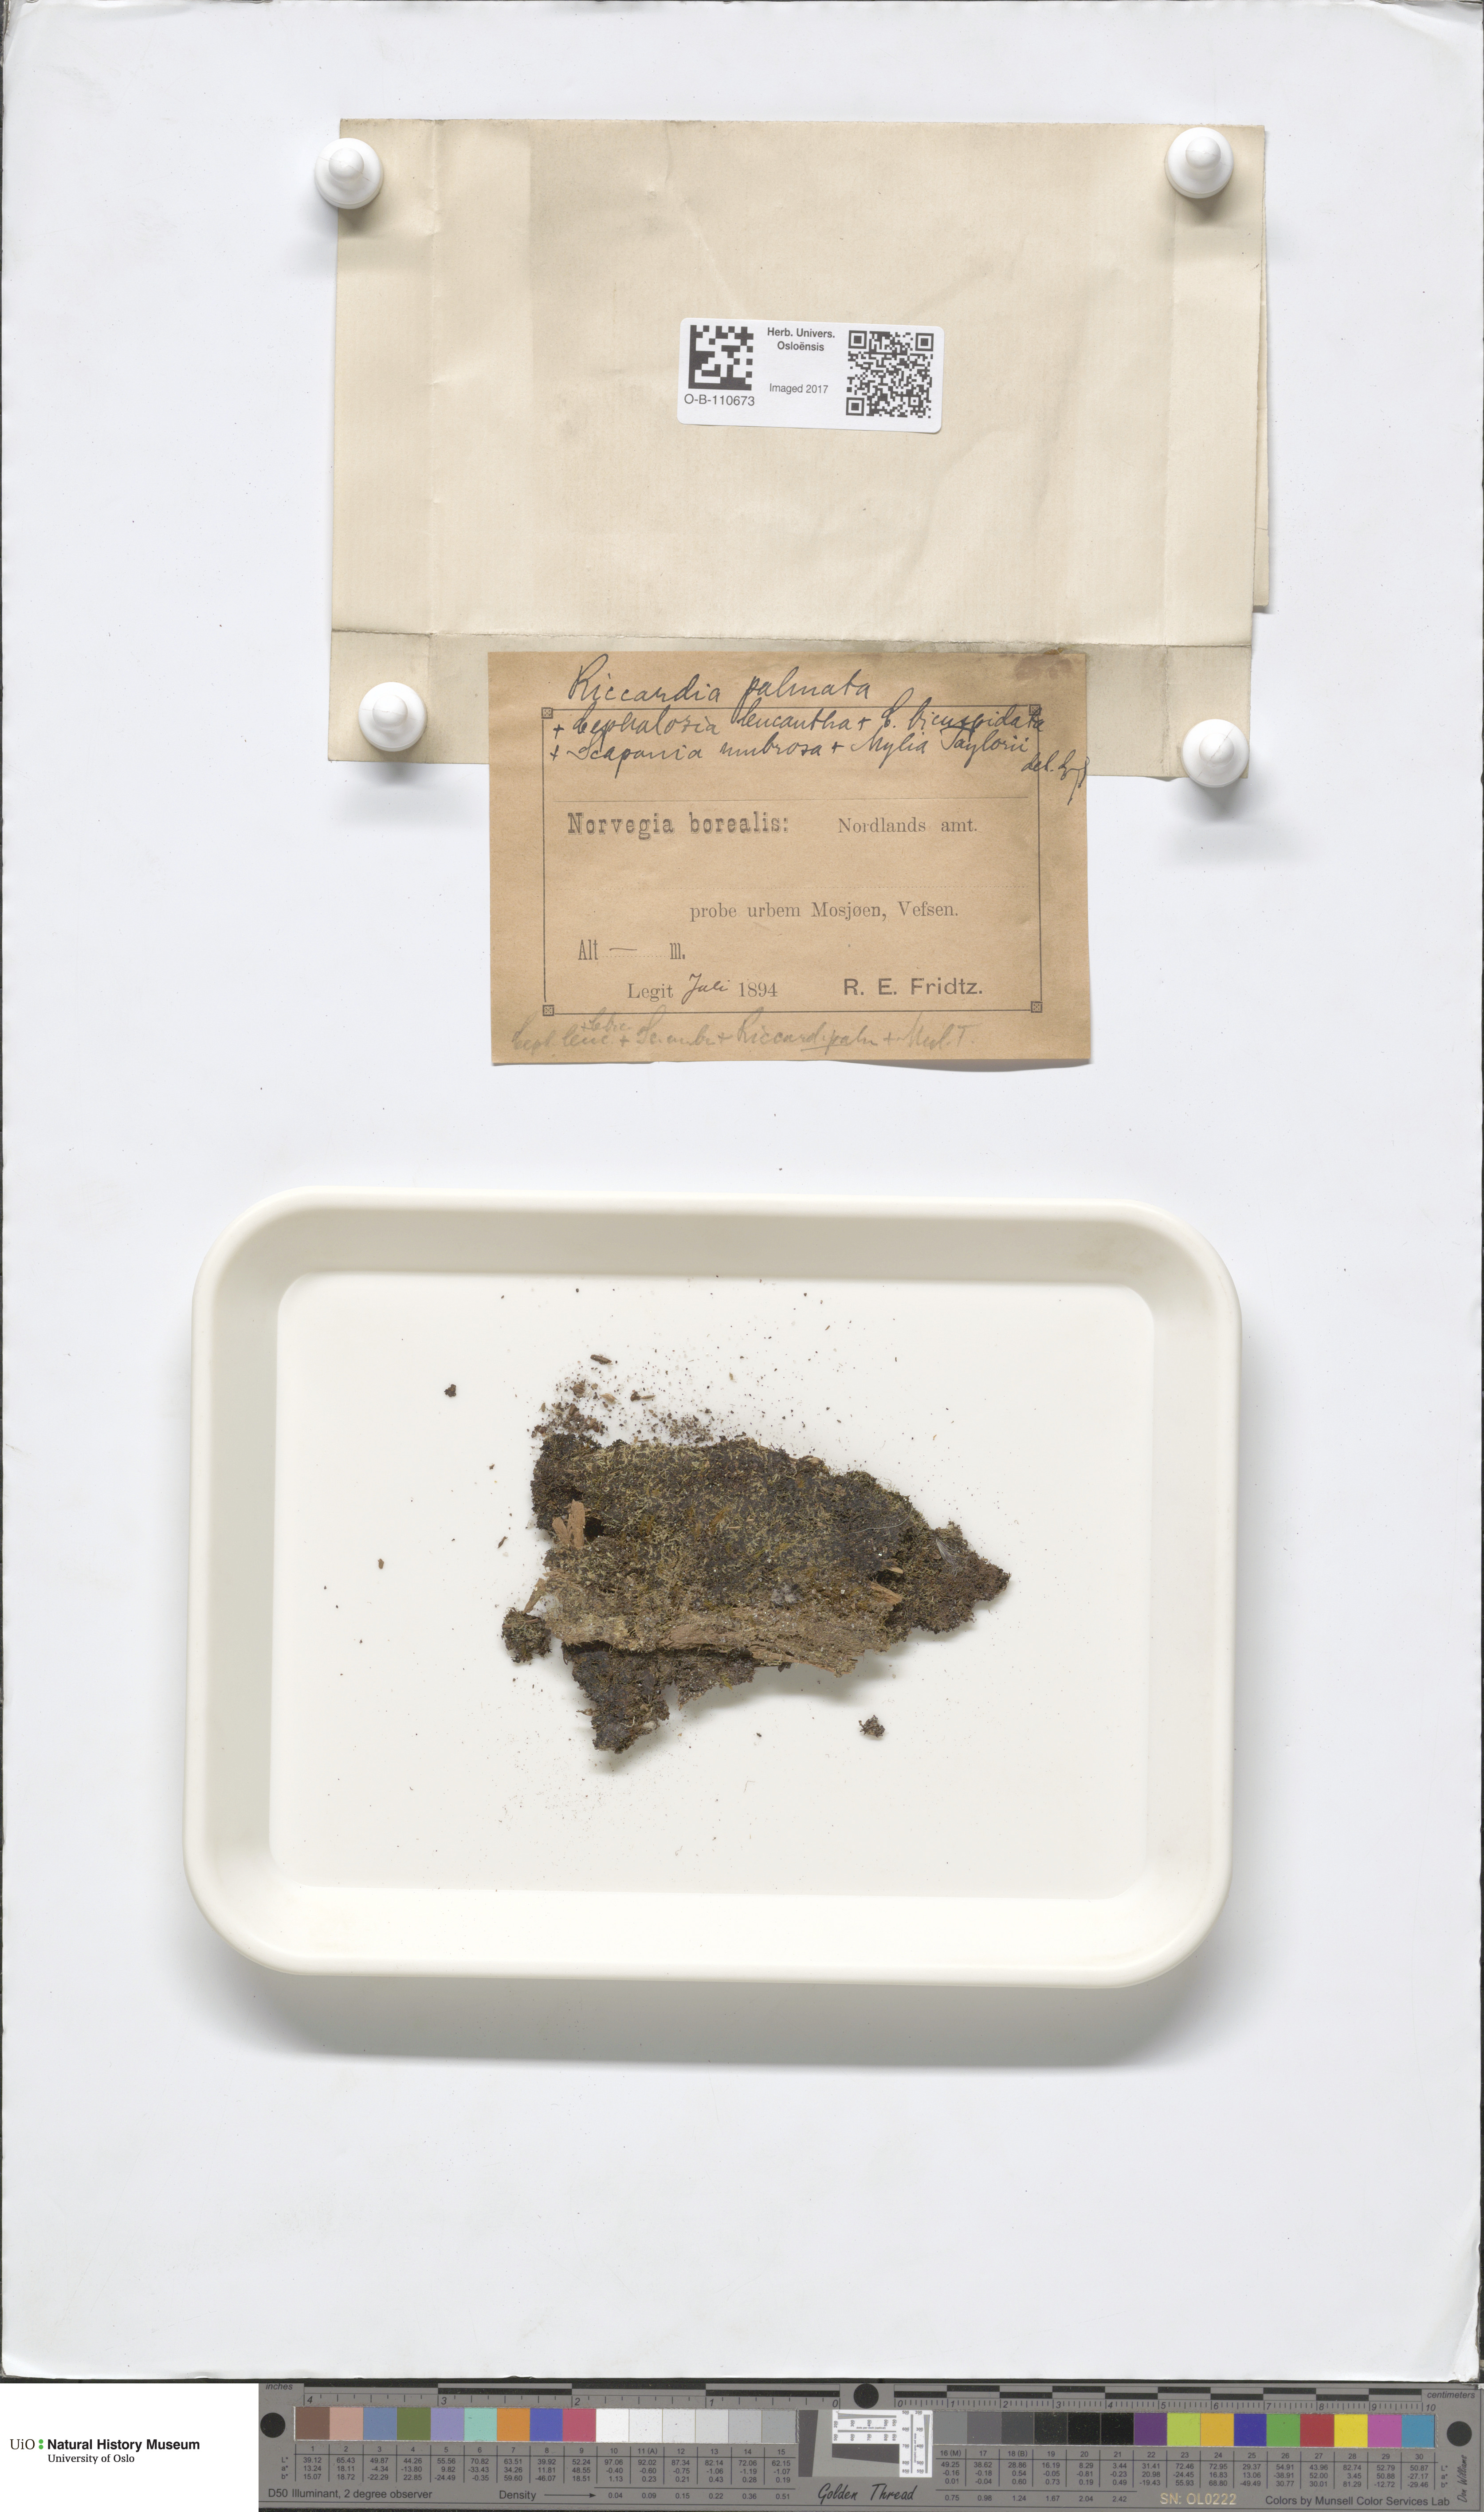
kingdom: Plantae
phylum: Marchantiophyta
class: Jungermanniopsida
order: Metzgeriales
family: Aneuraceae
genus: Riccardia
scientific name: Riccardia palmata
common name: Palmate germanderwort
